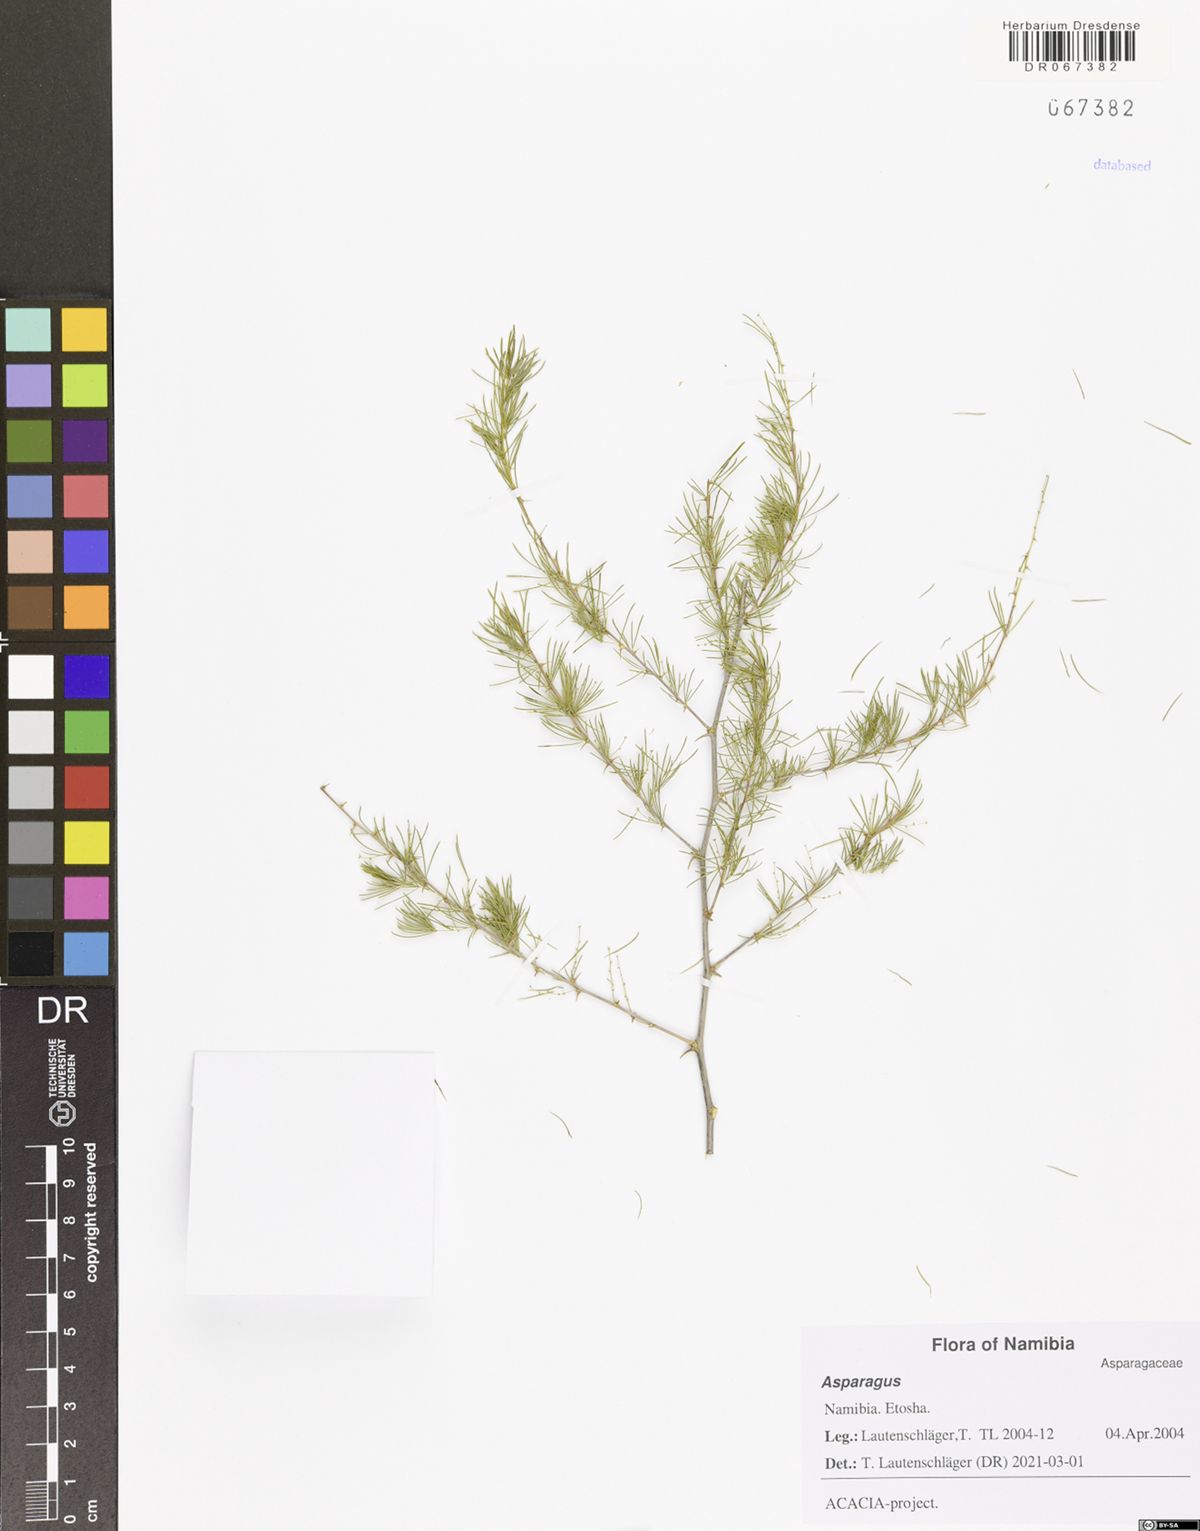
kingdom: Plantae
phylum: Tracheophyta
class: Liliopsida
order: Asparagales
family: Asparagaceae
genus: Asparagus
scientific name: Asparagus
